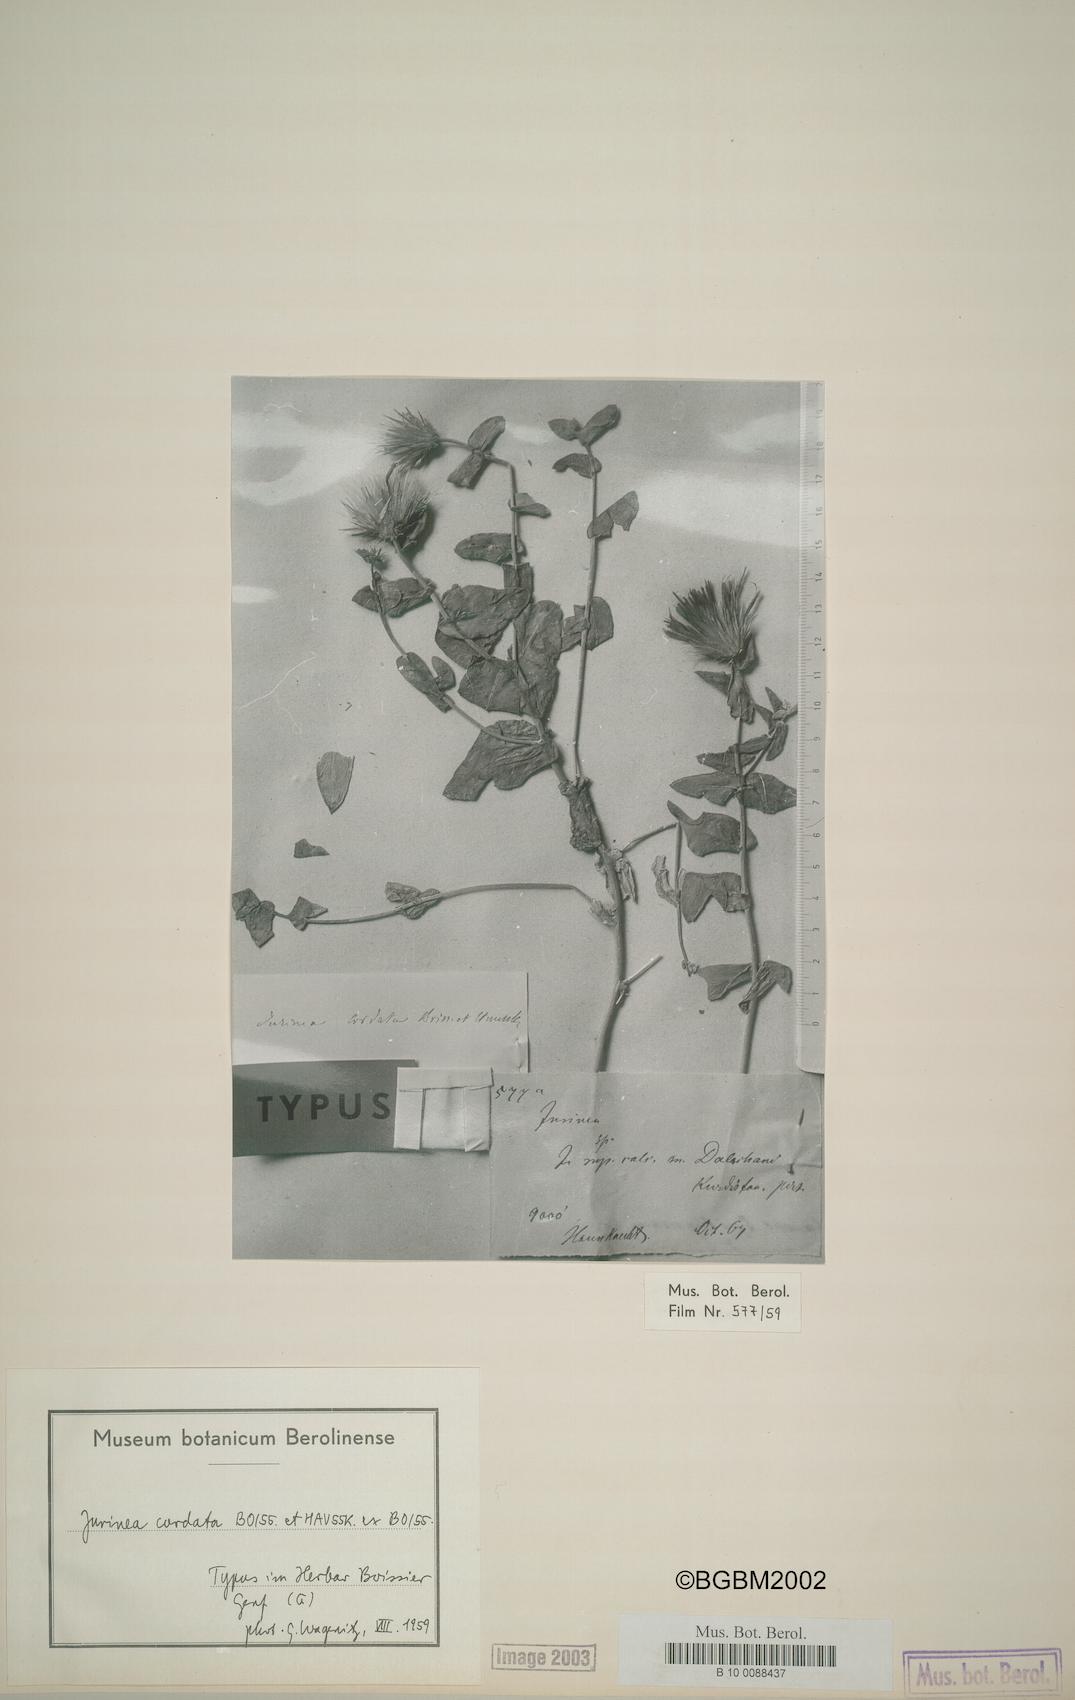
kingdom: Plantae
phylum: Tracheophyta
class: Magnoliopsida
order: Asterales
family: Asteraceae
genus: Jurinea
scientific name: Jurinea cordata
